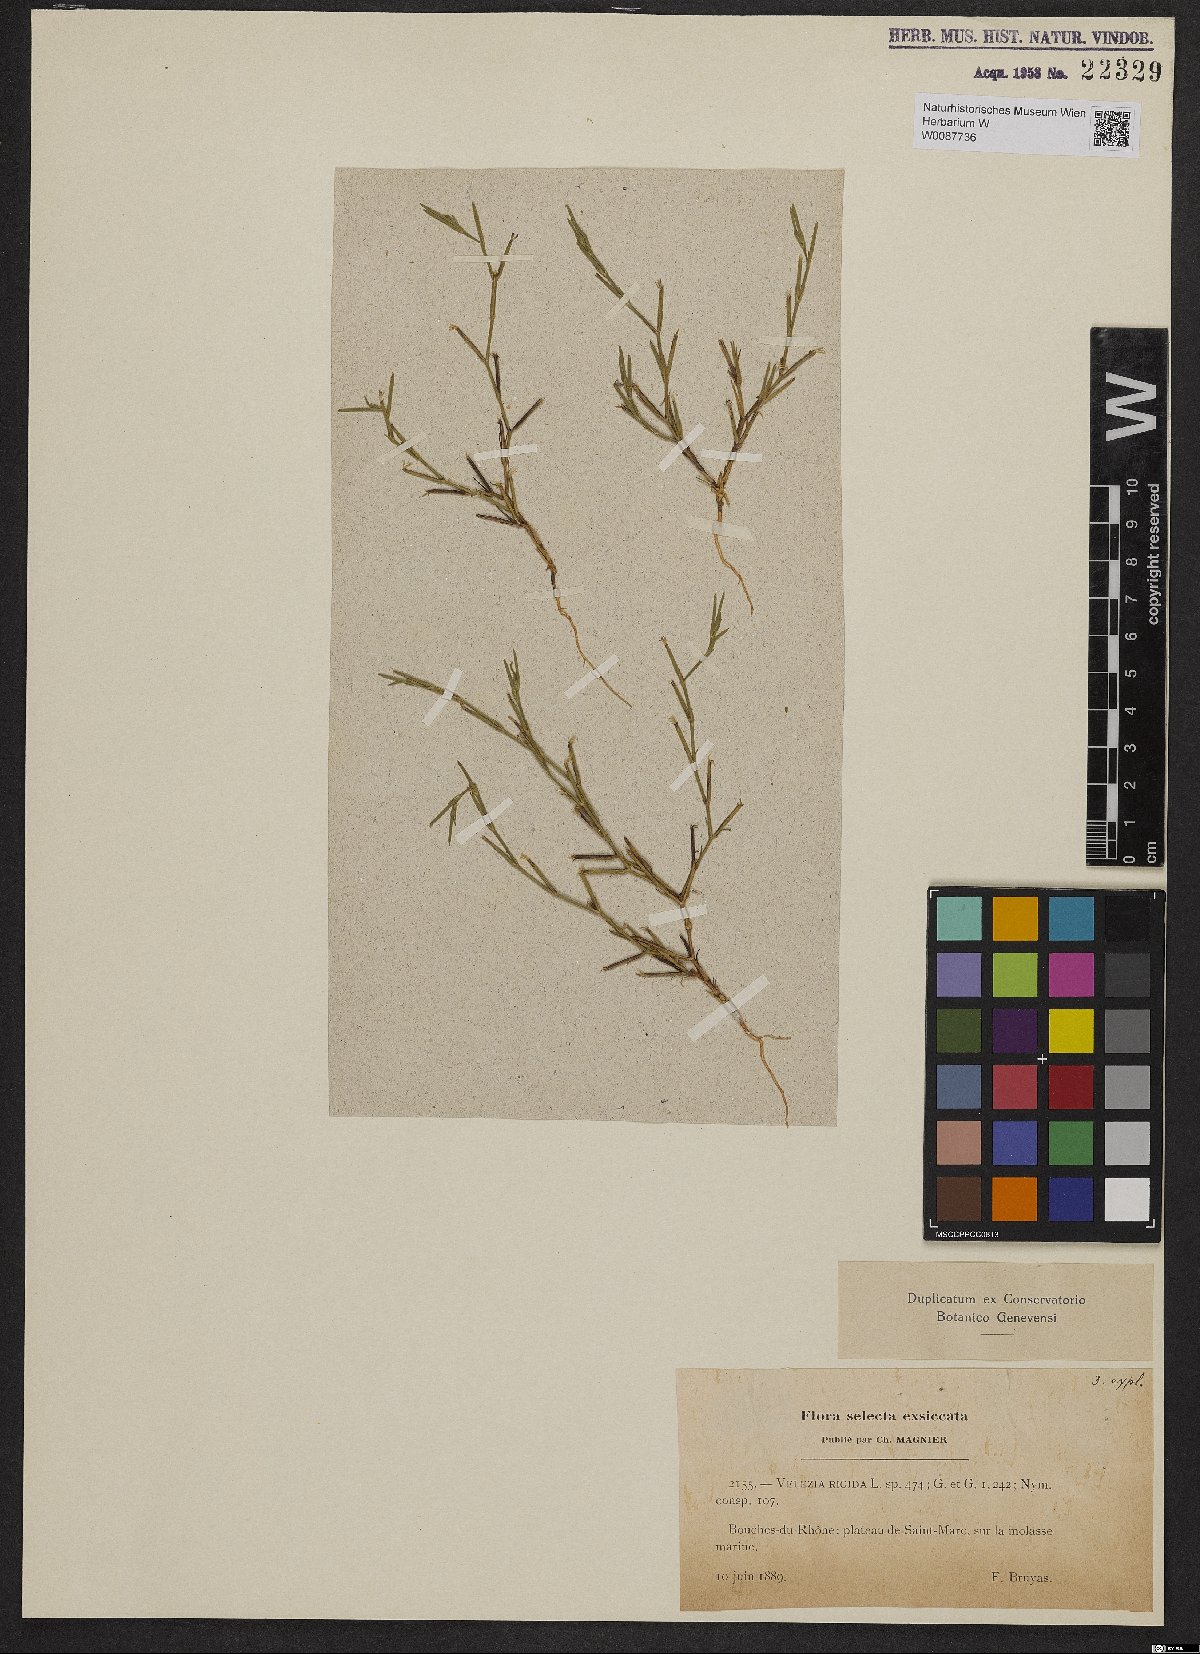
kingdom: Plantae
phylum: Tracheophyta
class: Magnoliopsida
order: Caryophyllales
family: Caryophyllaceae
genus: Dianthus
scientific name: Dianthus nudiflorus
